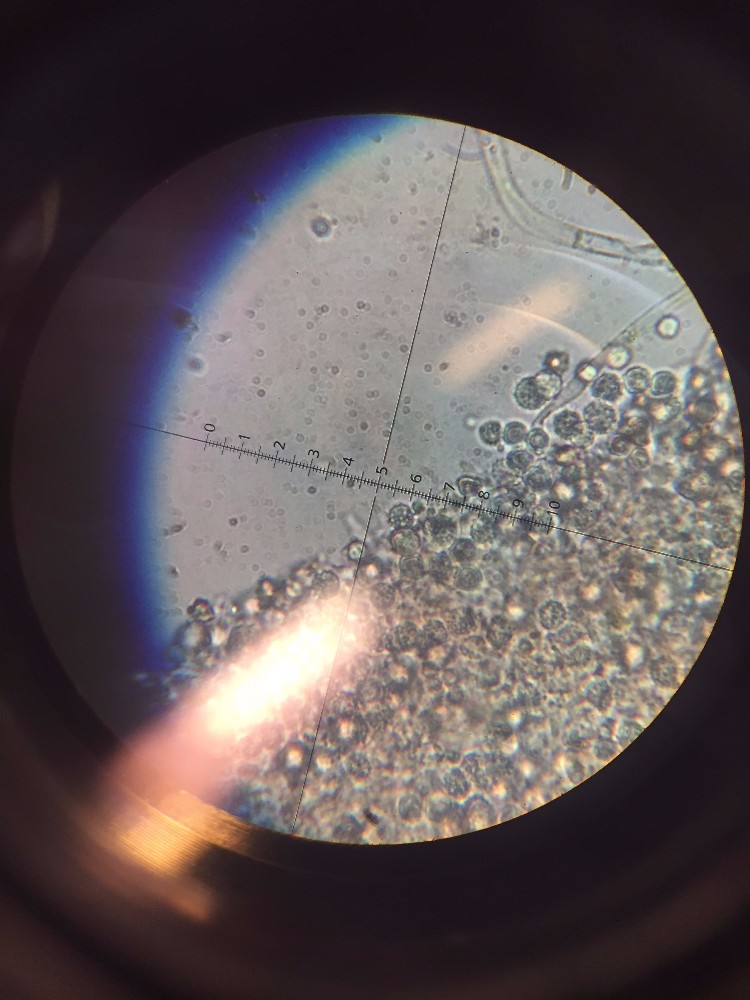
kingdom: Fungi
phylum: Basidiomycota
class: Agaricomycetes
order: Agaricales
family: Hydnangiaceae
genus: Laccaria
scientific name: Laccaria
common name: ametysthat
